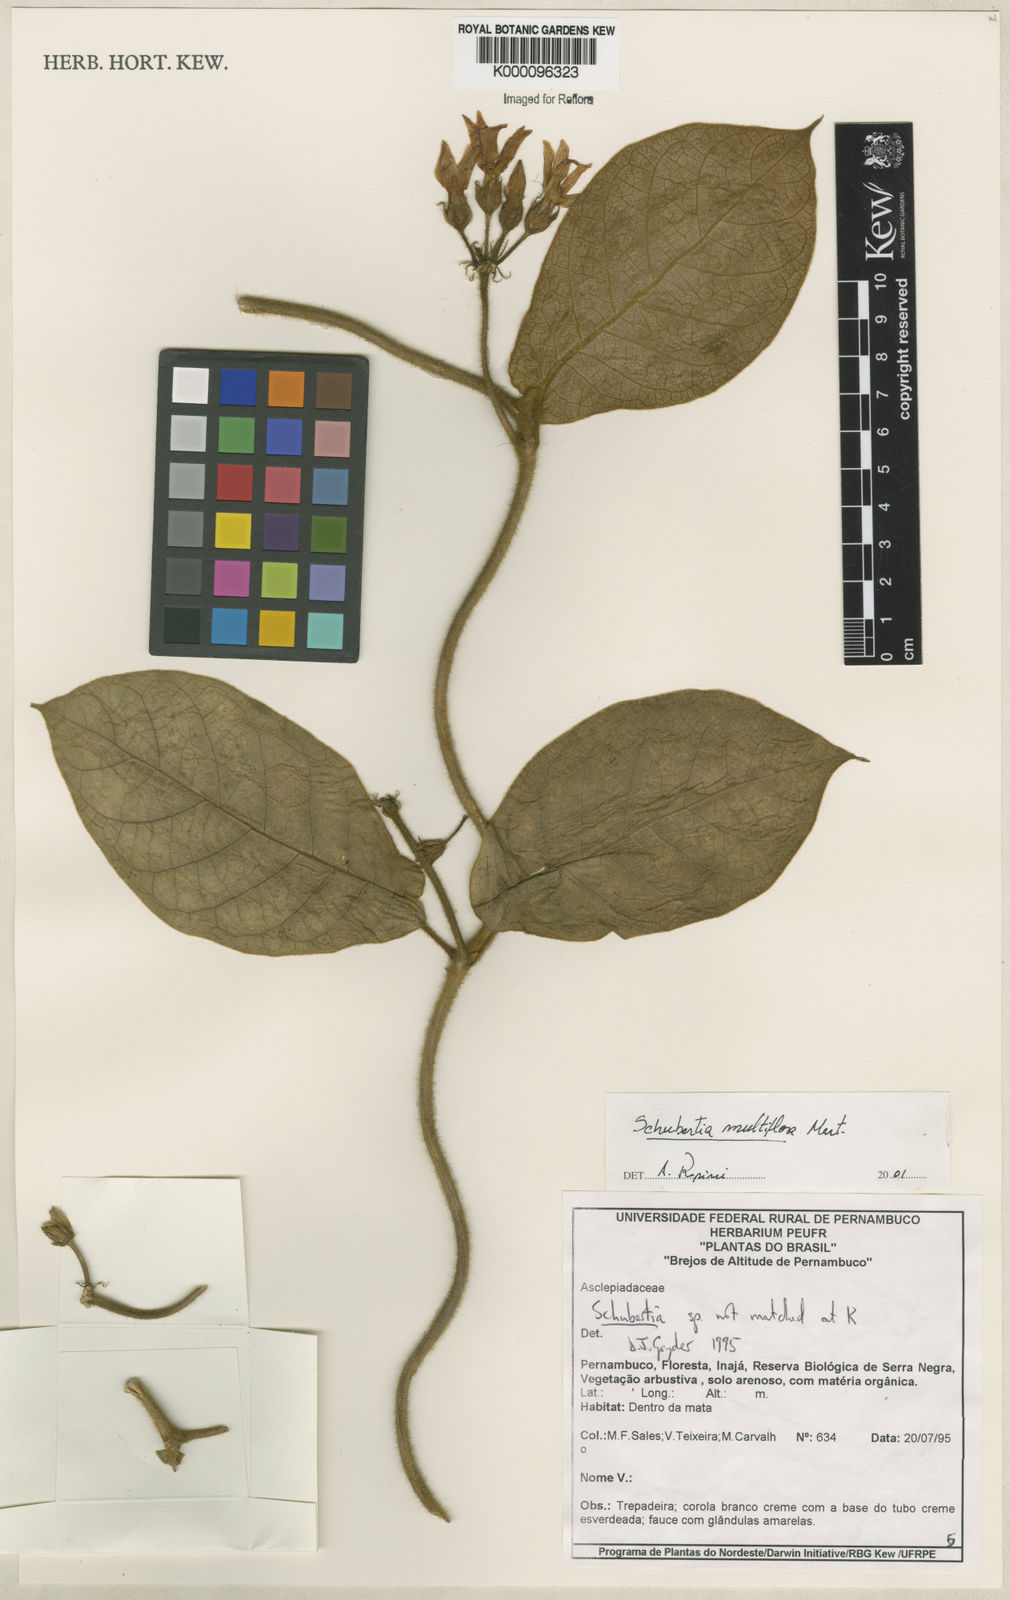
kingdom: Plantae
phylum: Tracheophyta
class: Magnoliopsida
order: Gentianales
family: Apocynaceae
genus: Schubertia
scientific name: Schubertia multiflora
